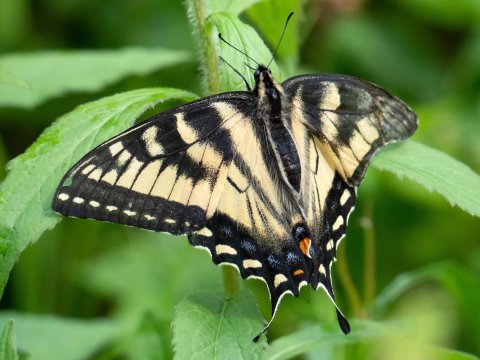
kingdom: Animalia
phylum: Arthropoda
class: Insecta
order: Lepidoptera
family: Papilionidae
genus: Pterourus
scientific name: Pterourus canadensis
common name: Canadian Tiger Swallowtail
